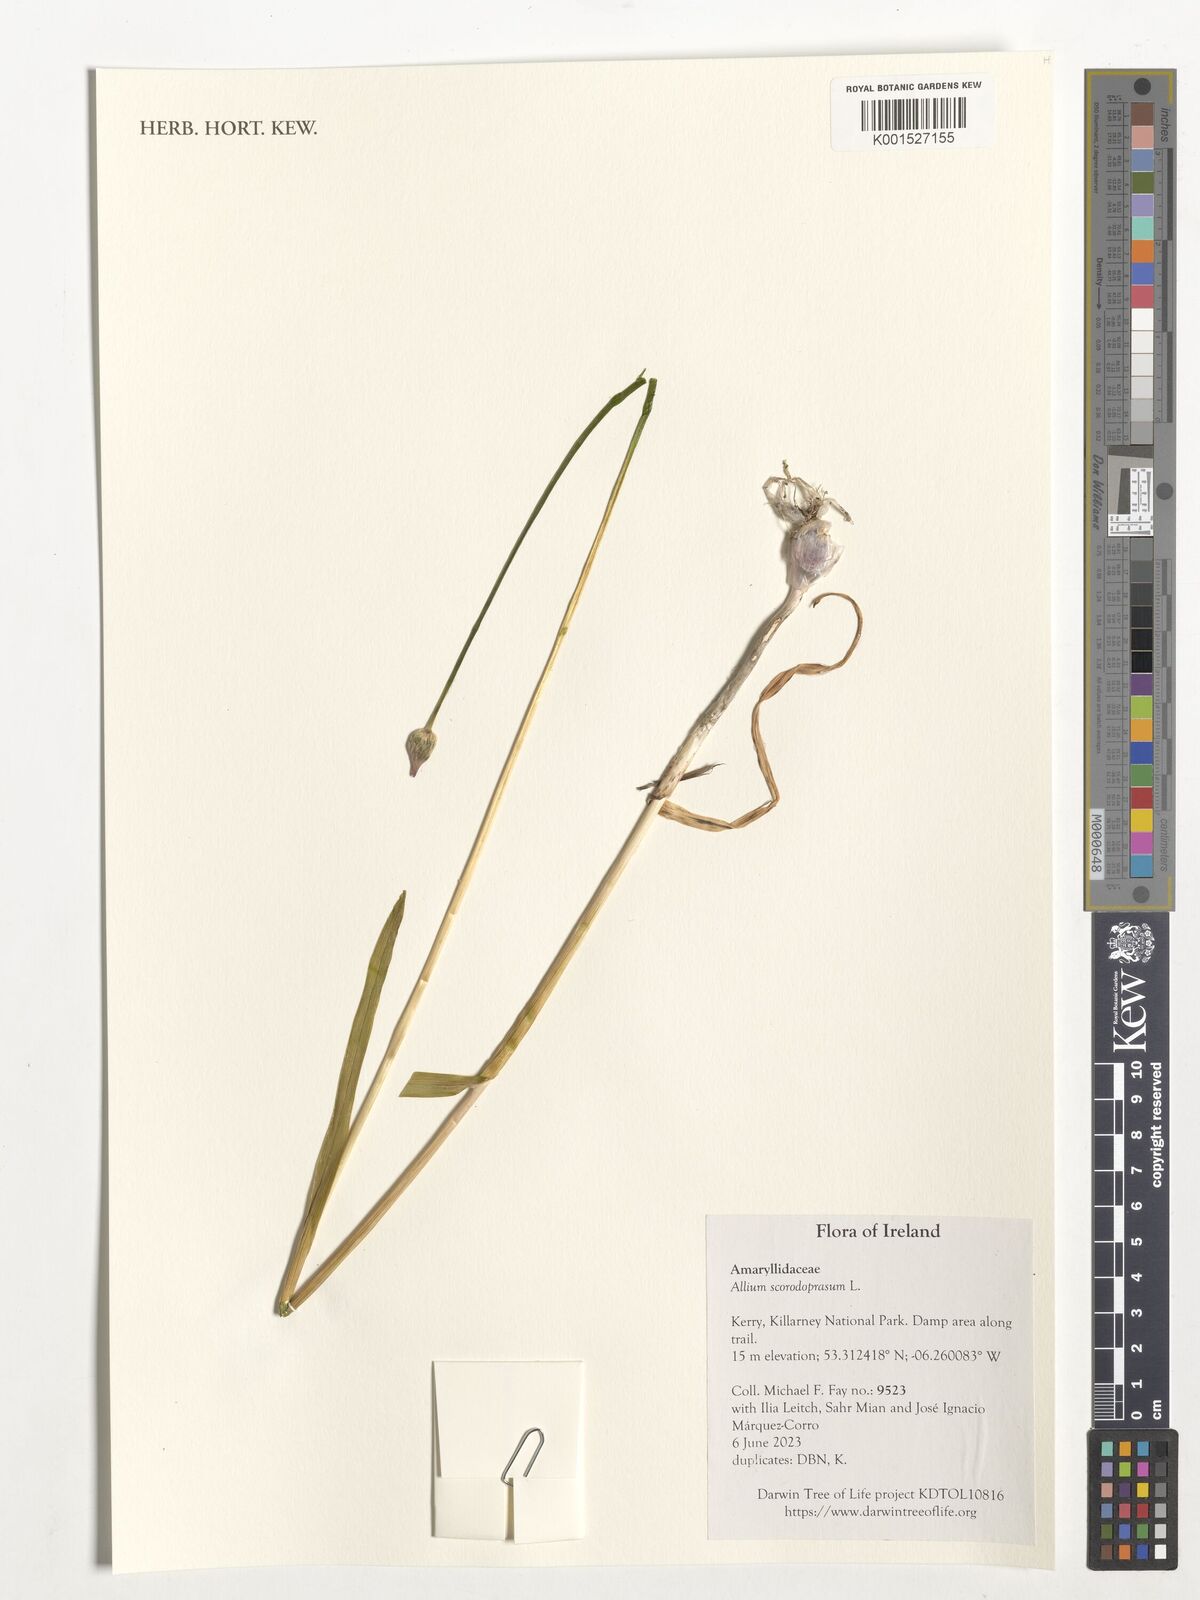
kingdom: Plantae
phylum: Tracheophyta
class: Liliopsida
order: Asparagales
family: Amaryllidaceae
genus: Allium
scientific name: Allium scorodoprasum
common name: Sand leek
